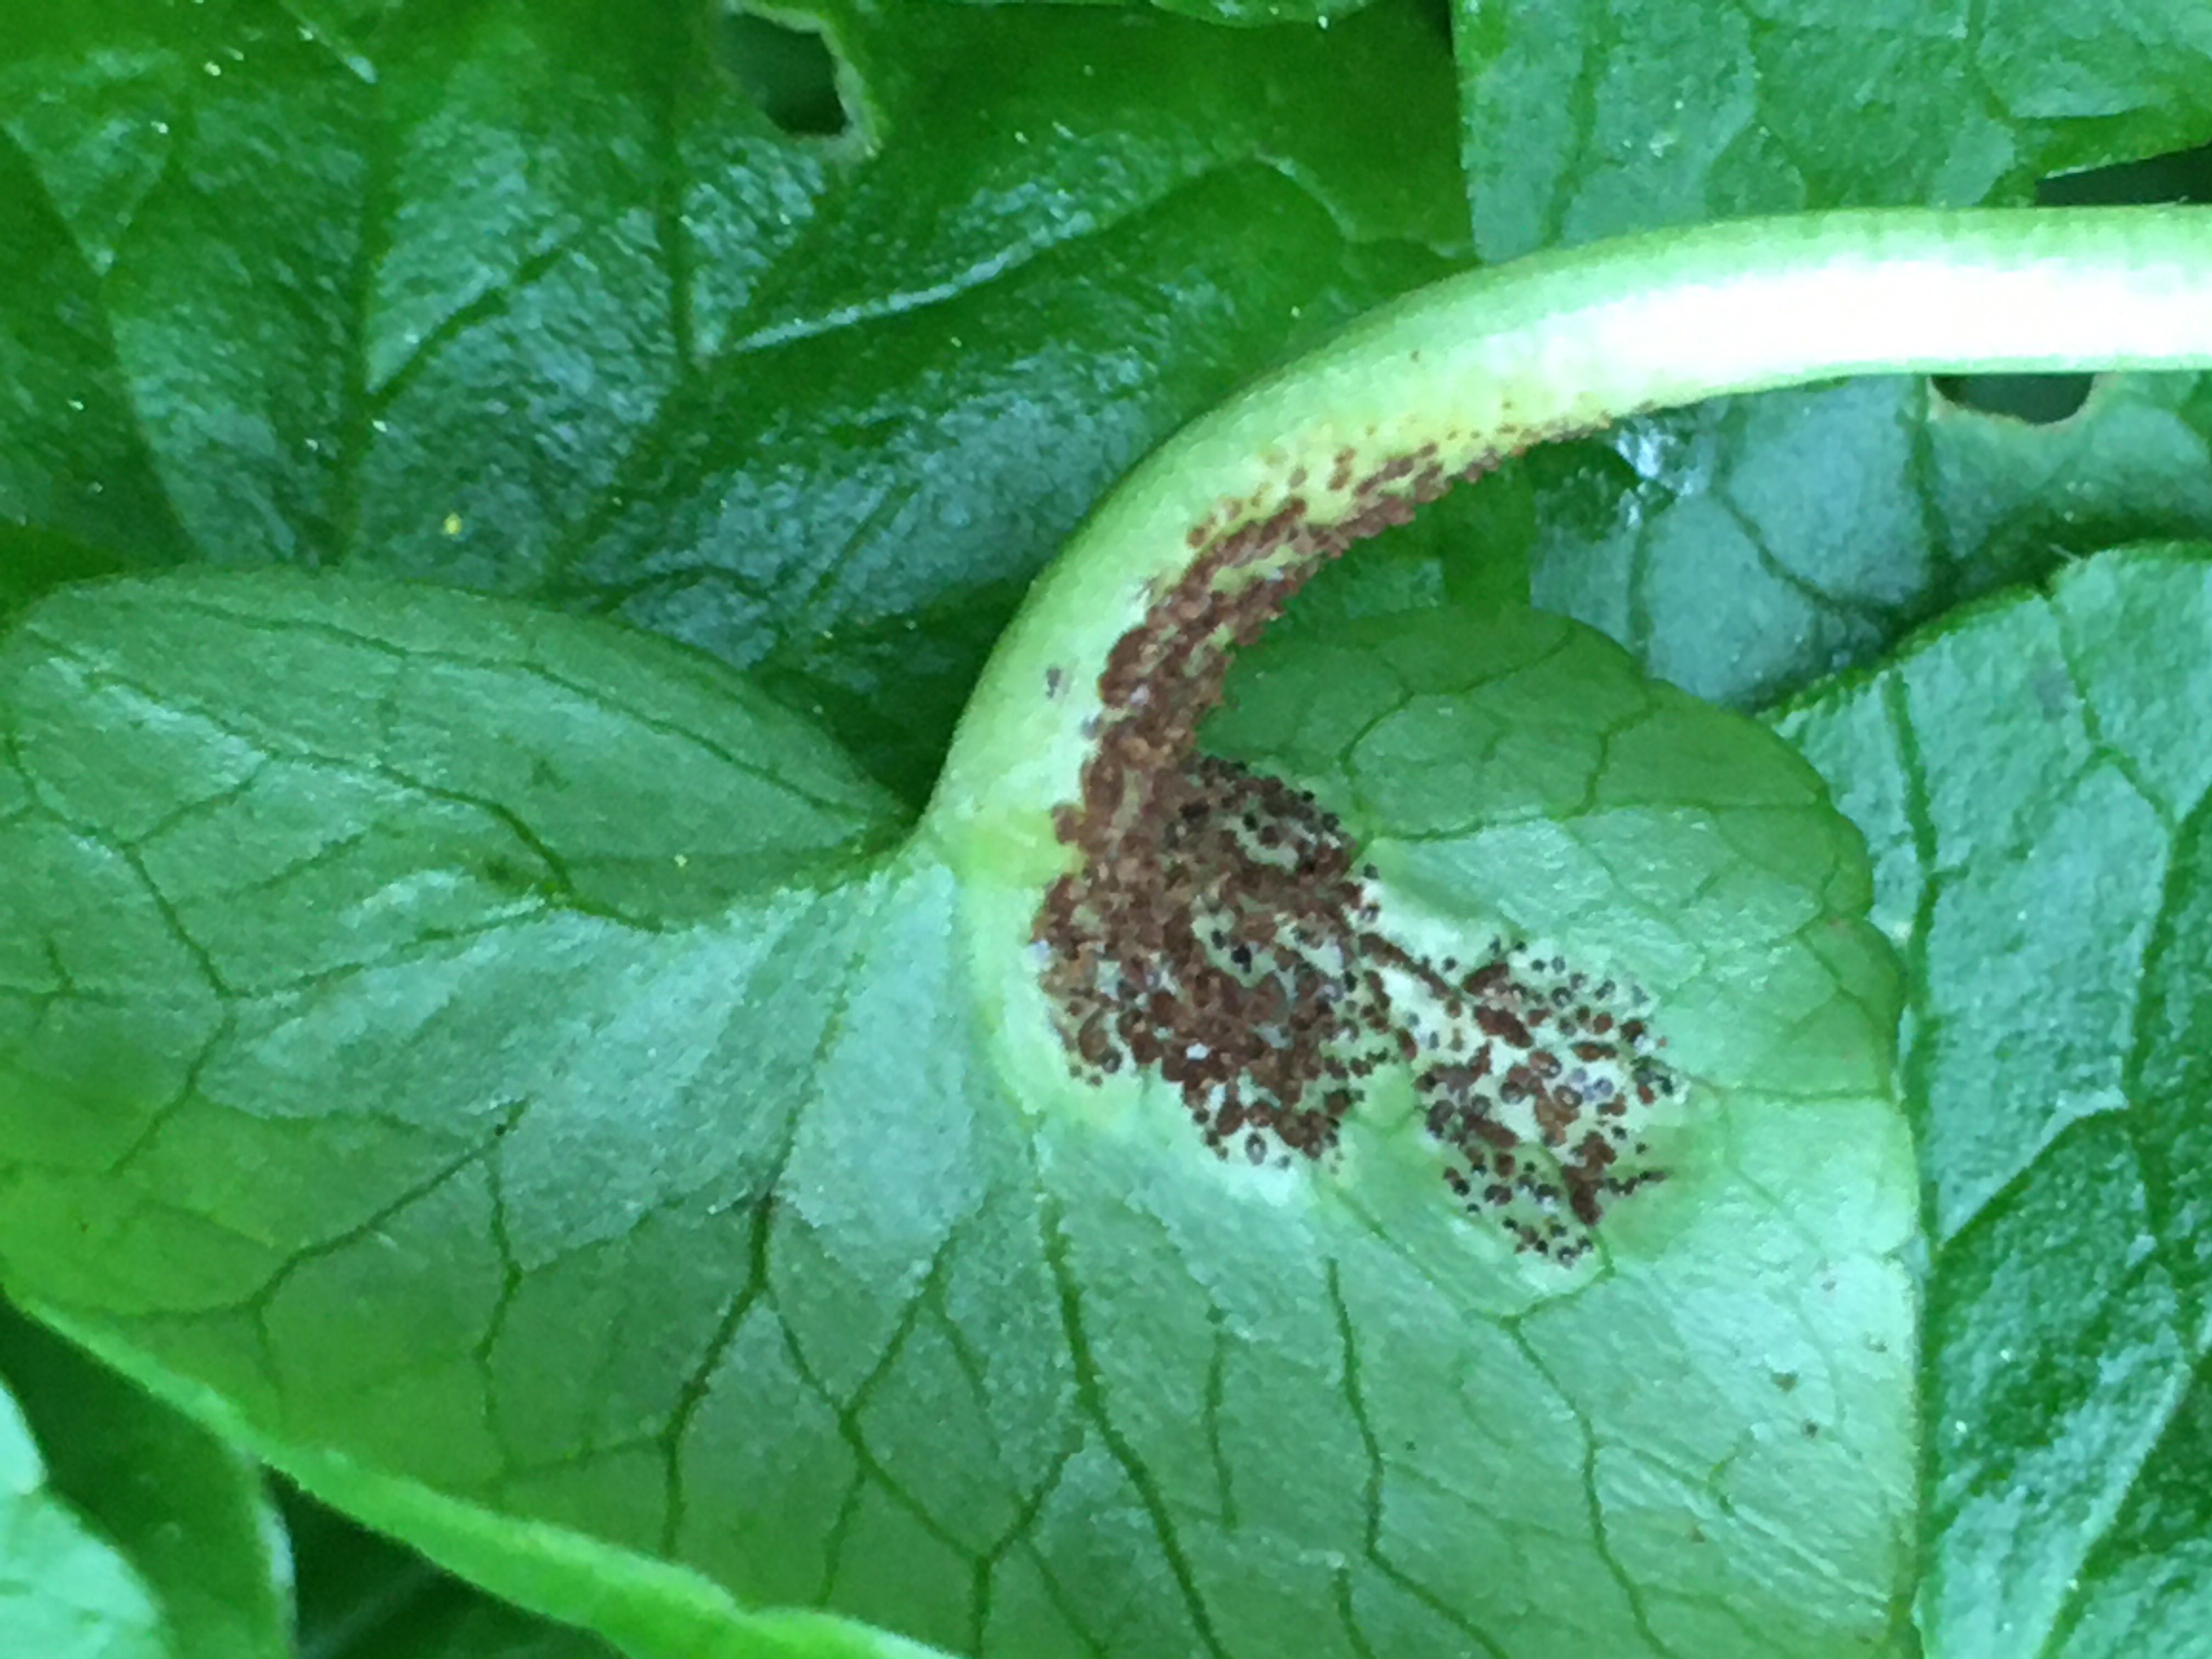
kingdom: Fungi
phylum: Basidiomycota
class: Pucciniomycetes
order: Pucciniales
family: Pucciniaceae
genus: Uromyces
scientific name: Uromyces ficariae
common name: vorterod-encellerust
